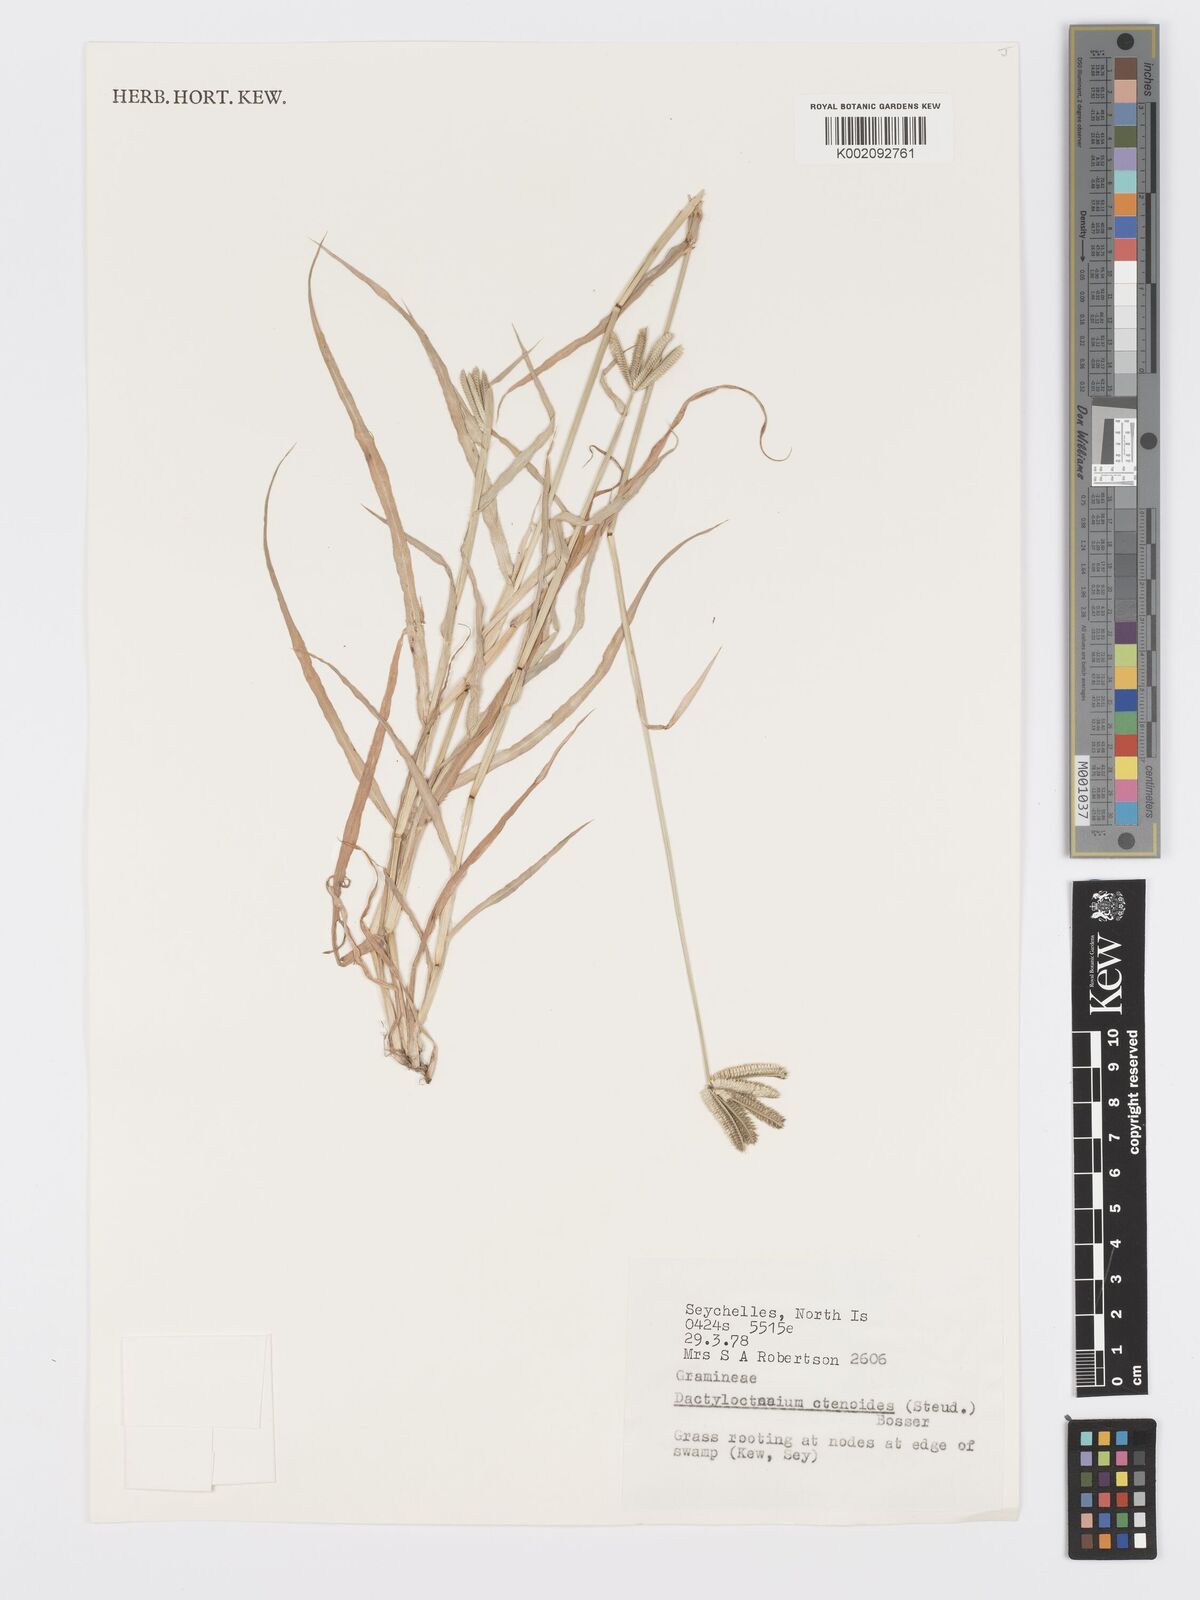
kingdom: Plantae
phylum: Tracheophyta
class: Liliopsida
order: Poales
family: Poaceae
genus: Dactyloctenium
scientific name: Dactyloctenium ctenoides
